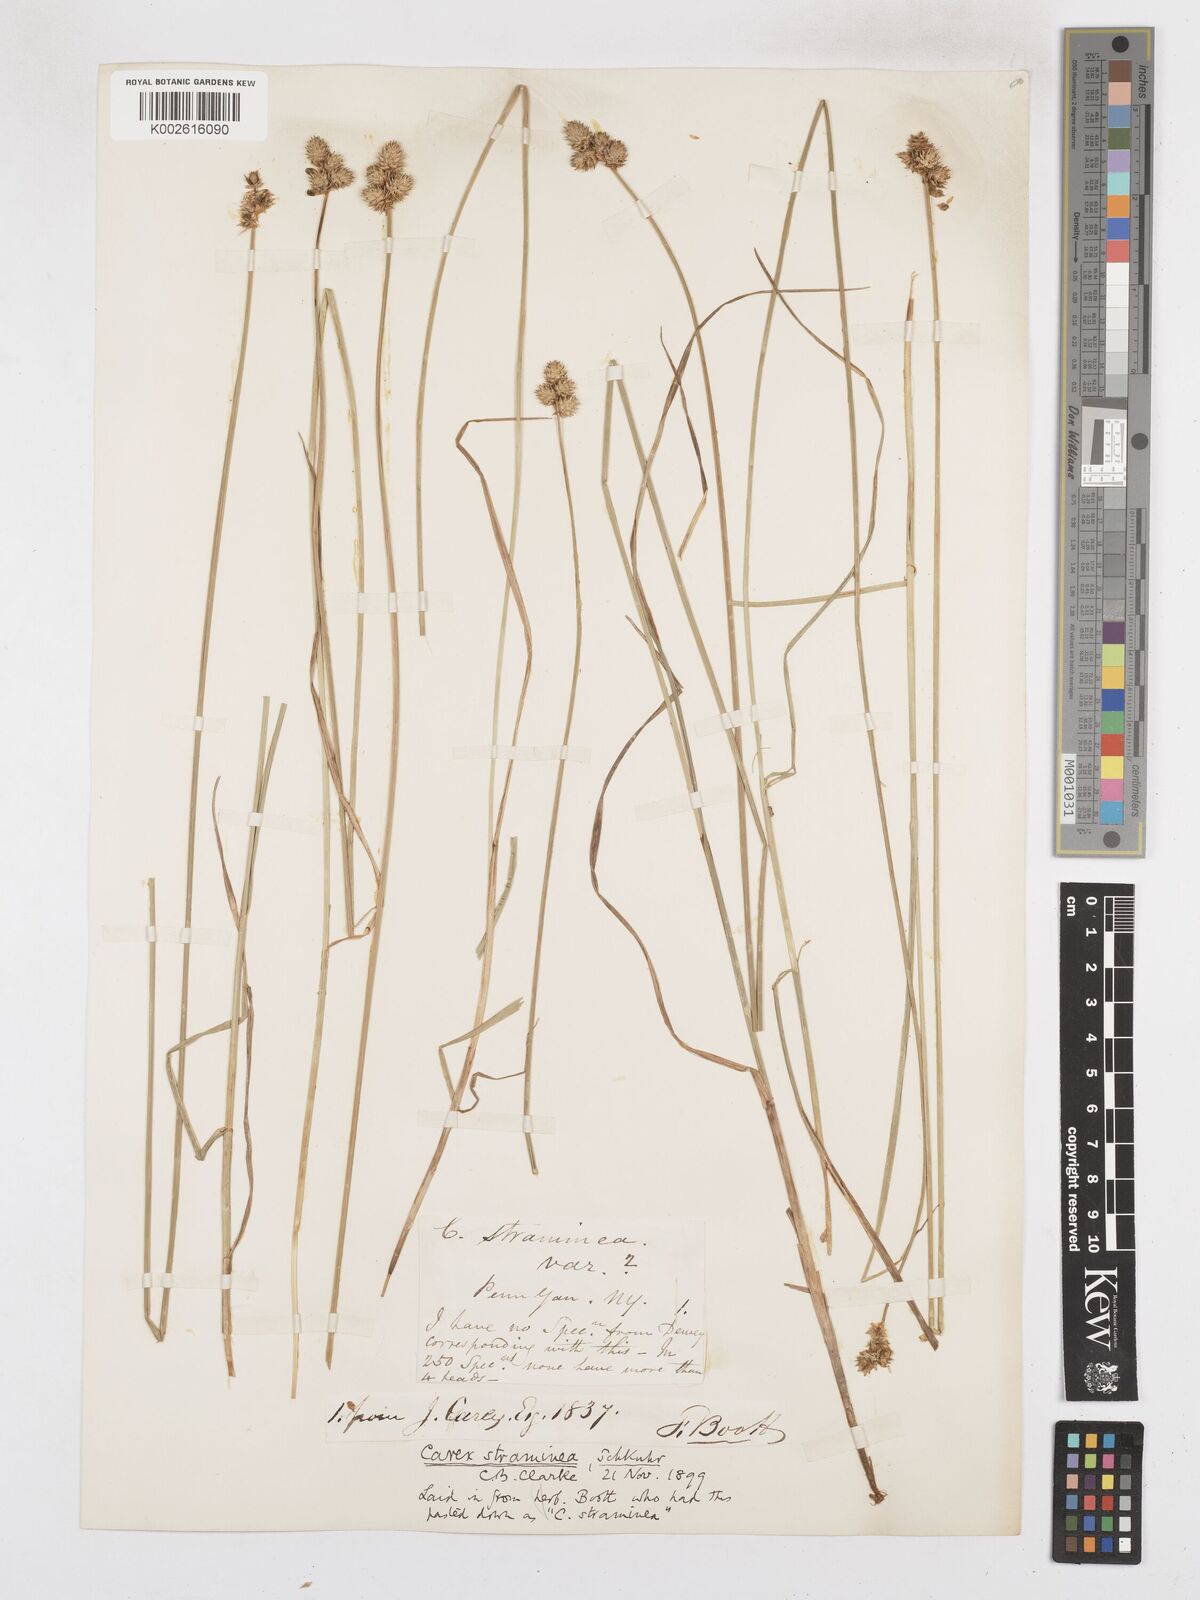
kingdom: Plantae
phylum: Tracheophyta
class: Liliopsida
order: Poales
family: Cyperaceae
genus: Carex
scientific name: Carex brevior
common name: Brevior sedge
